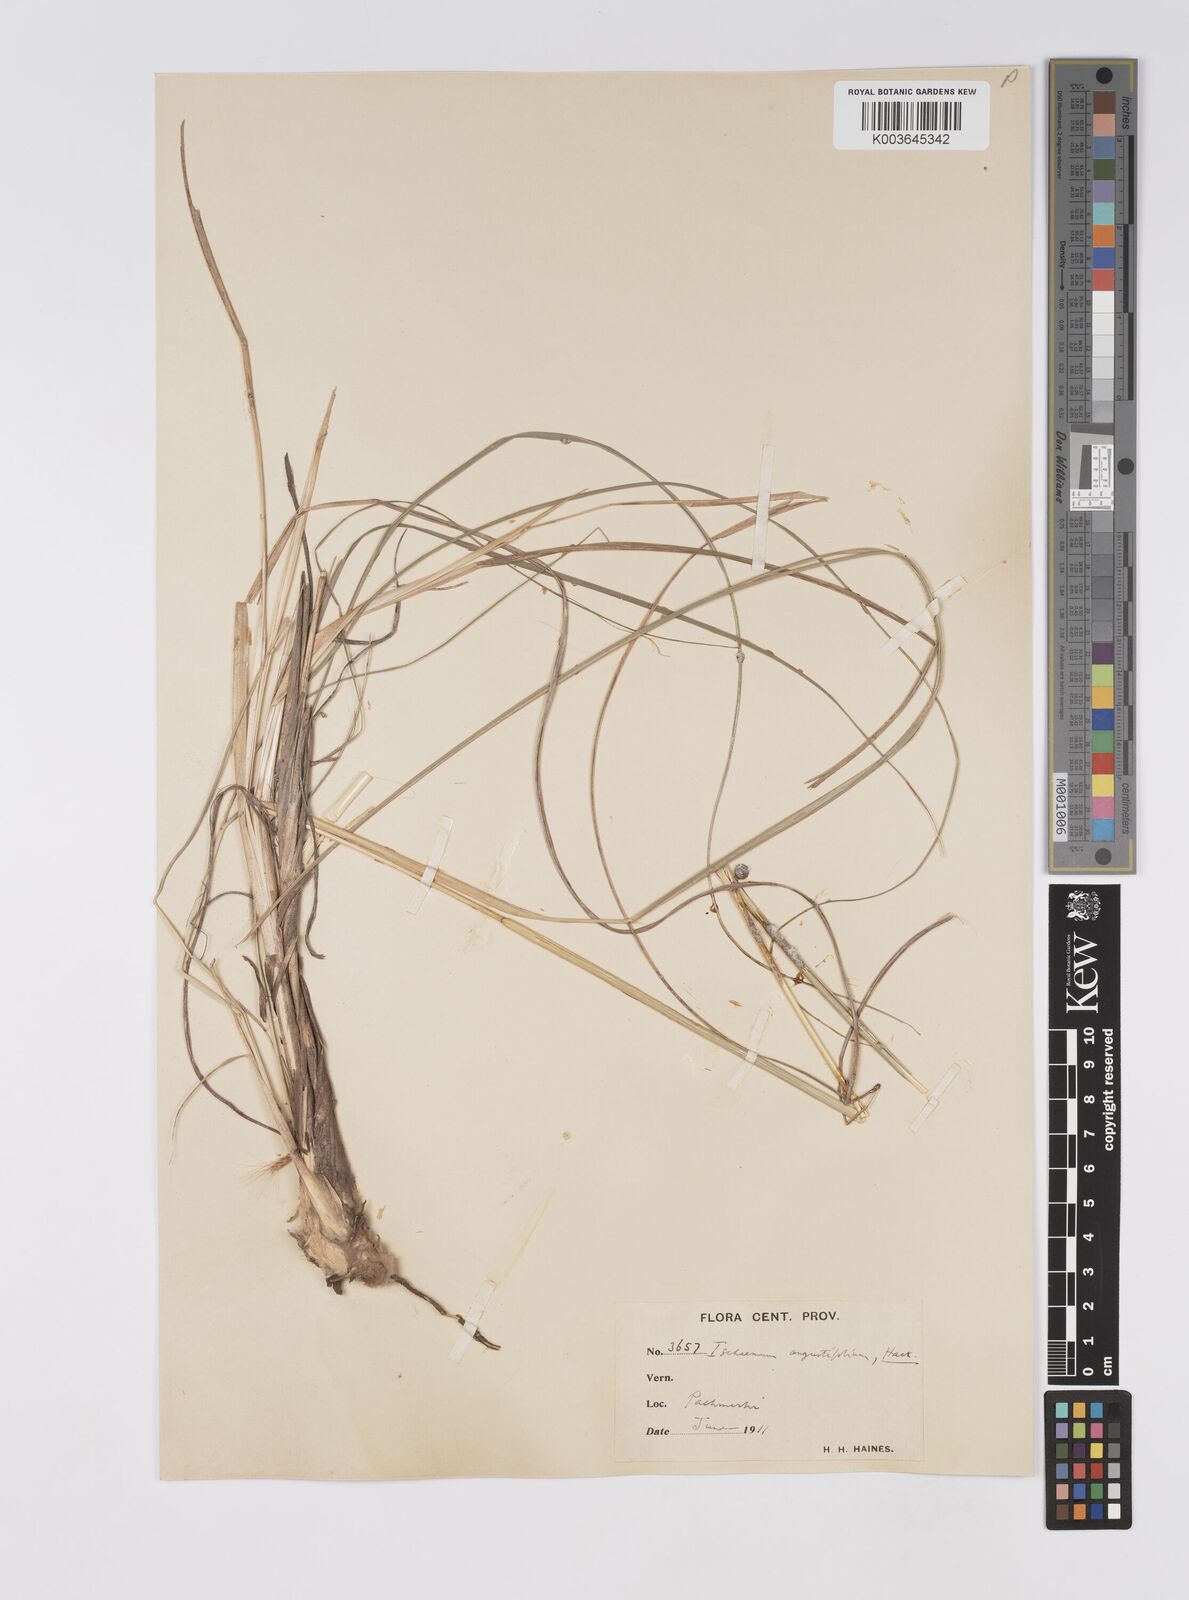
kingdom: Plantae
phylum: Tracheophyta
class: Liliopsida
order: Poales
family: Poaceae
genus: Eulaliopsis
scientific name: Eulaliopsis binata
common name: Baib grass
